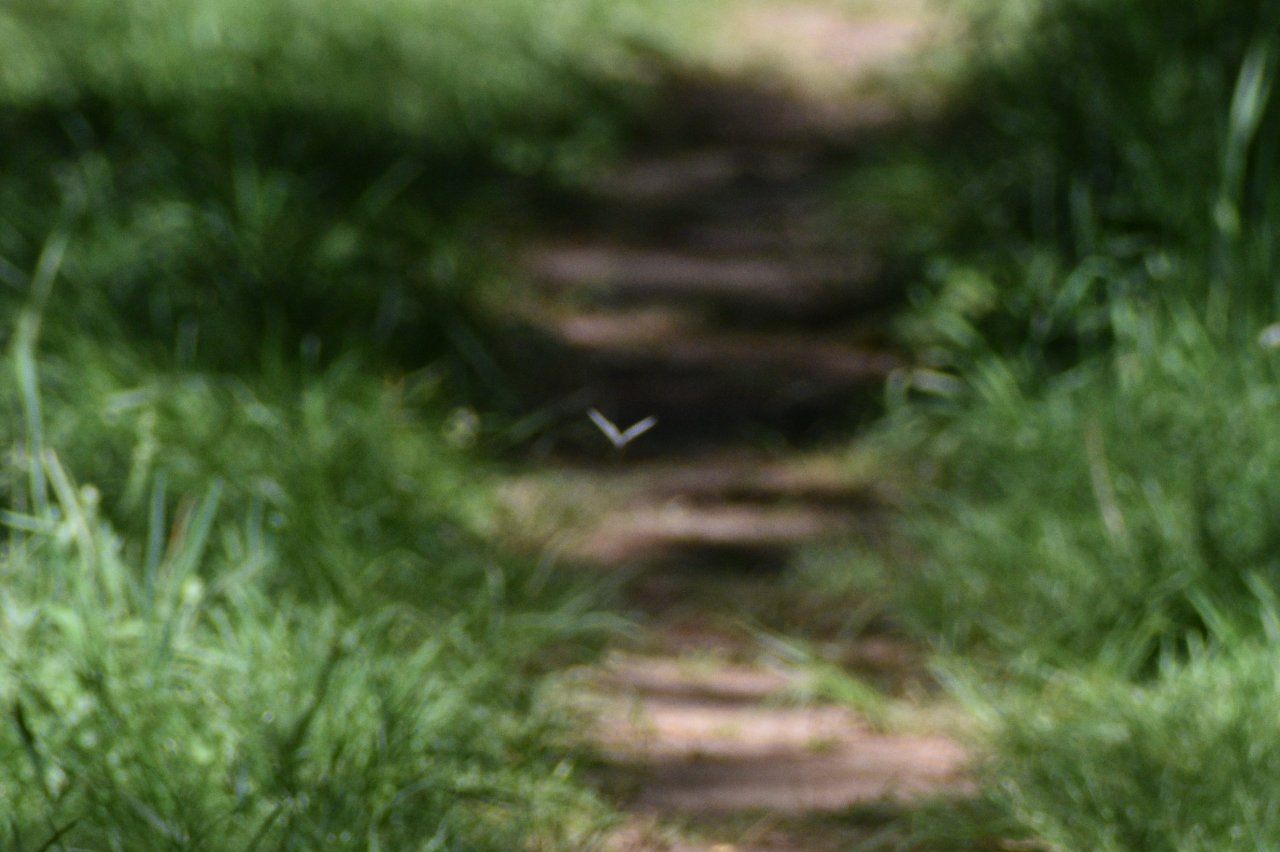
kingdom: Animalia
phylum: Arthropoda
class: Insecta
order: Lepidoptera
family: Pieridae
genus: Pieris
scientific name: Pieris rapae
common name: Cabbage White
